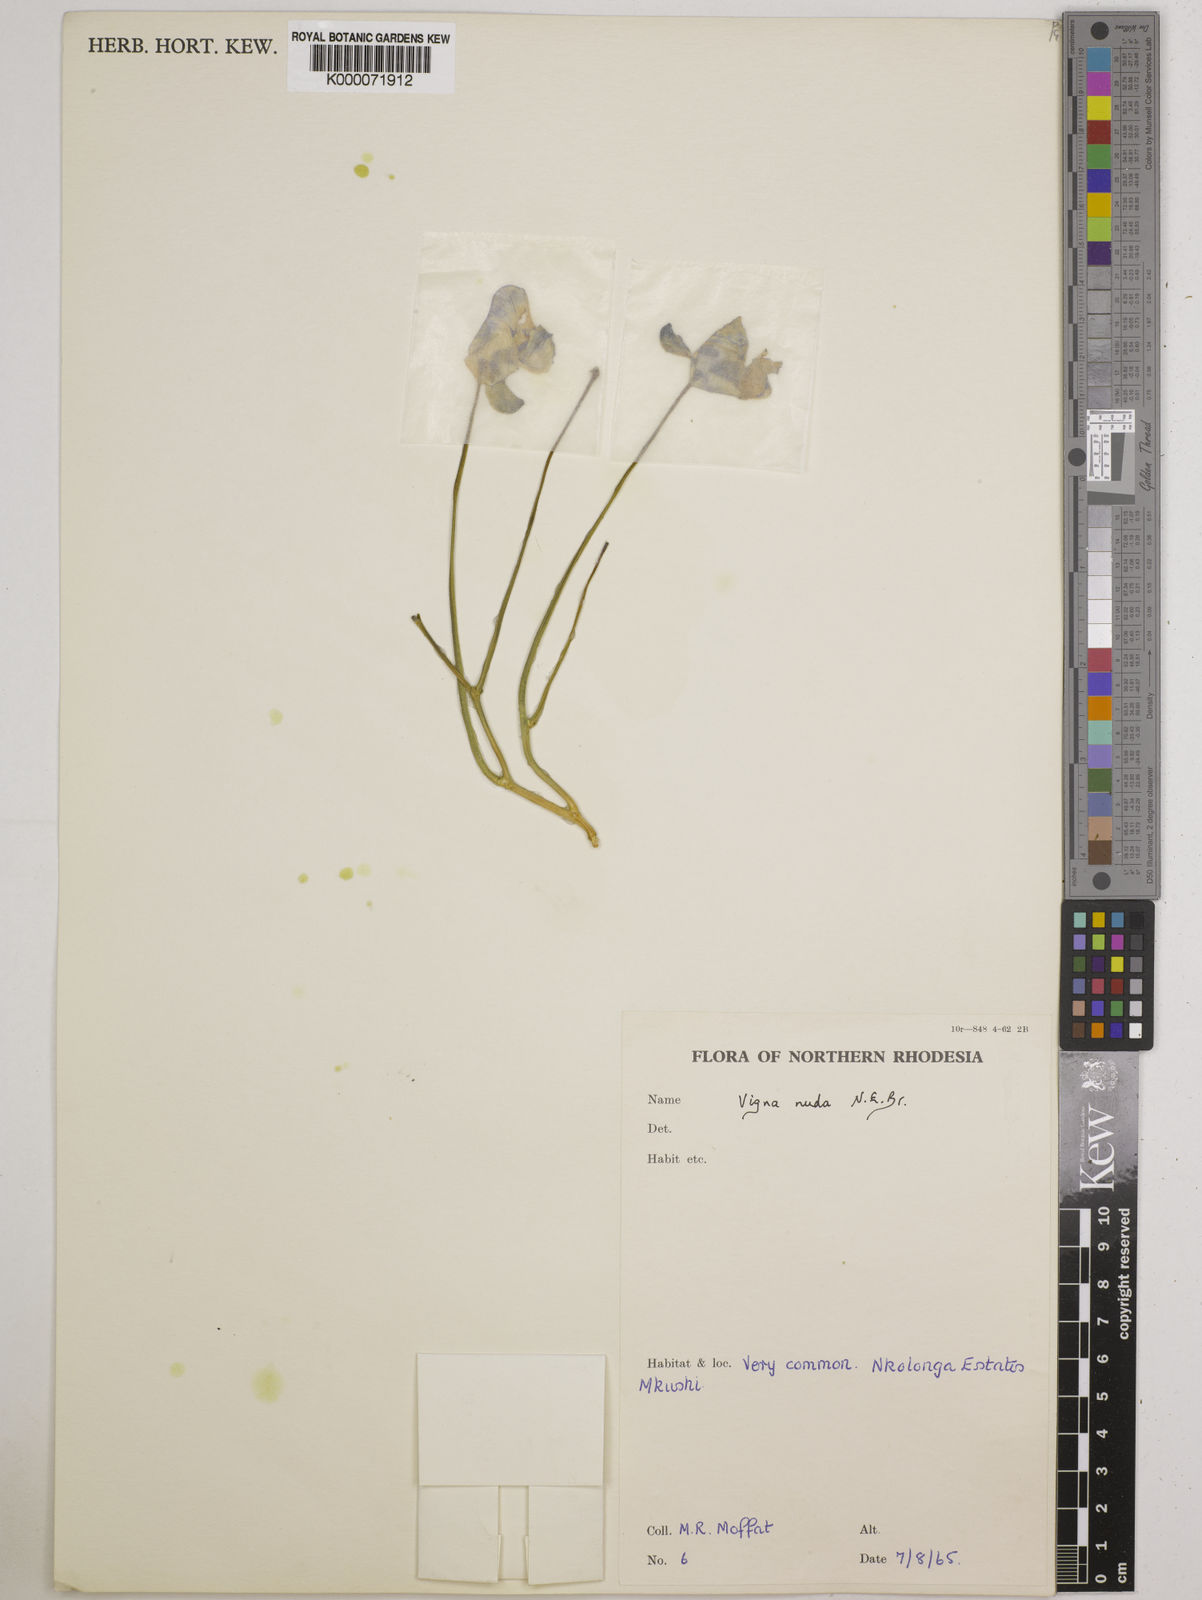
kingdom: Plantae
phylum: Tracheophyta
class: Magnoliopsida
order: Fabales
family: Fabaceae
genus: Vigna
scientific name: Vigna antunesii
